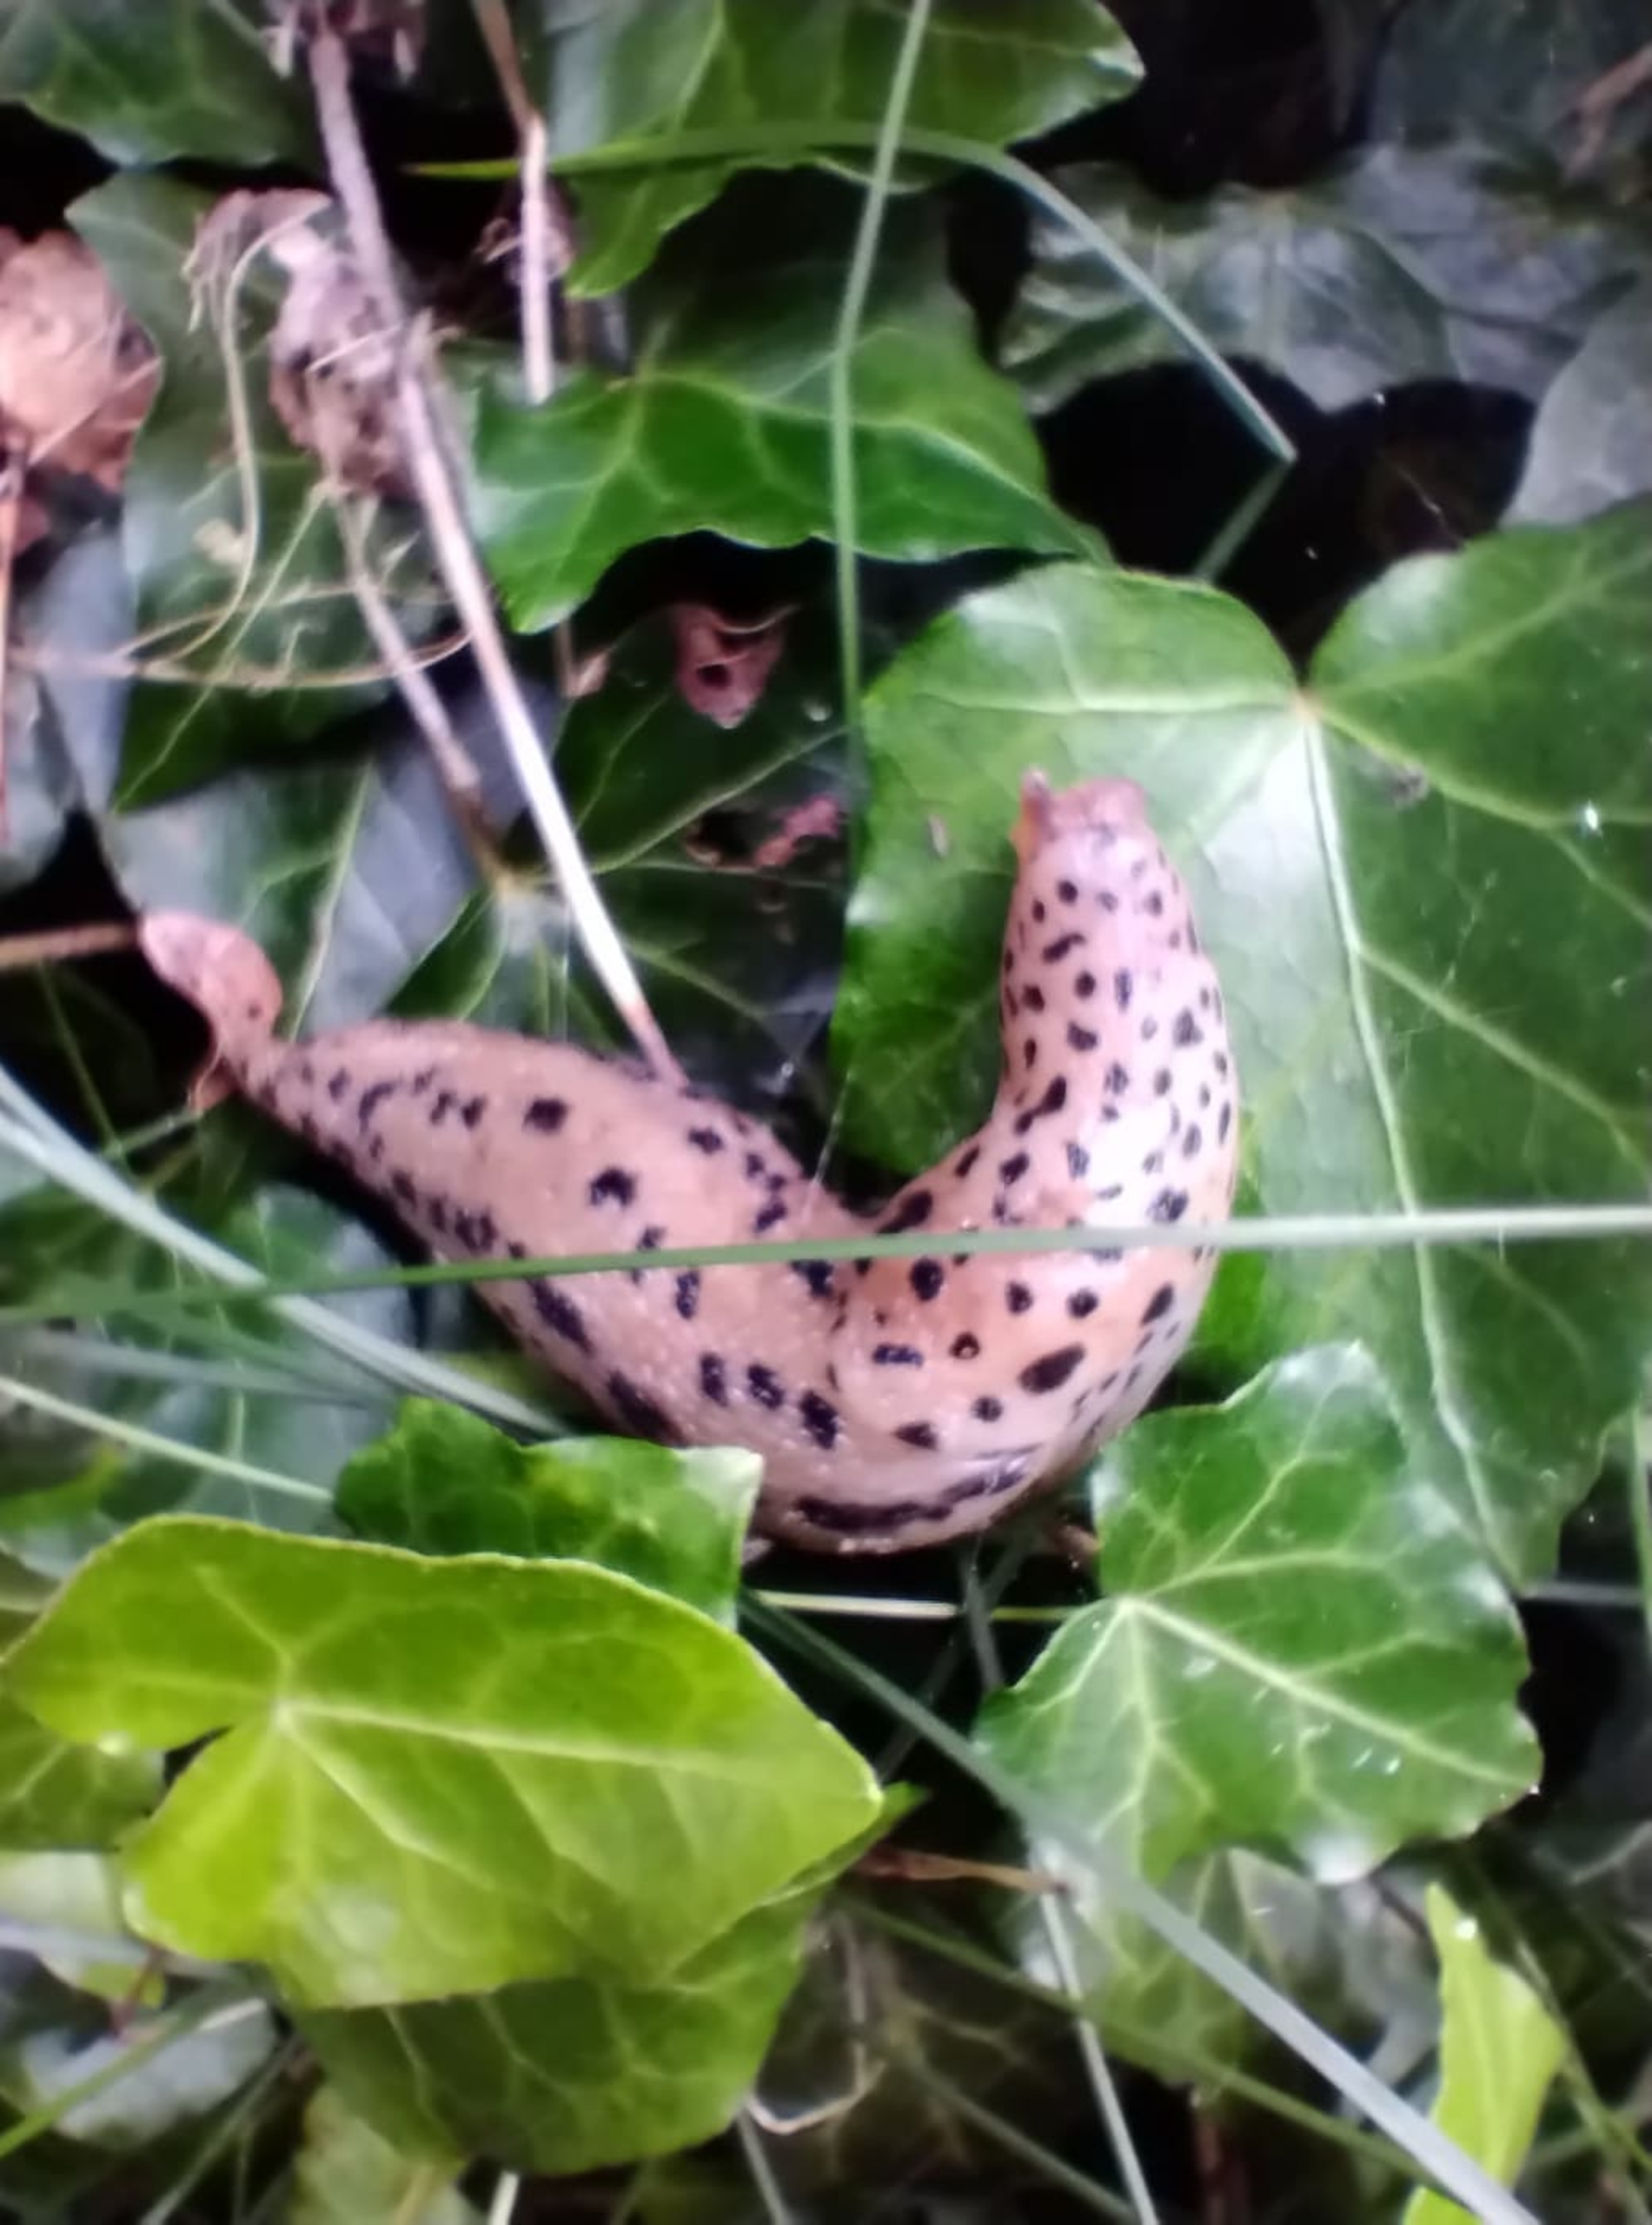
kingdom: Animalia
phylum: Mollusca
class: Gastropoda
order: Stylommatophora
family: Limacidae
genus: Limax
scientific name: Limax maximus
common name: Pantersnegl
